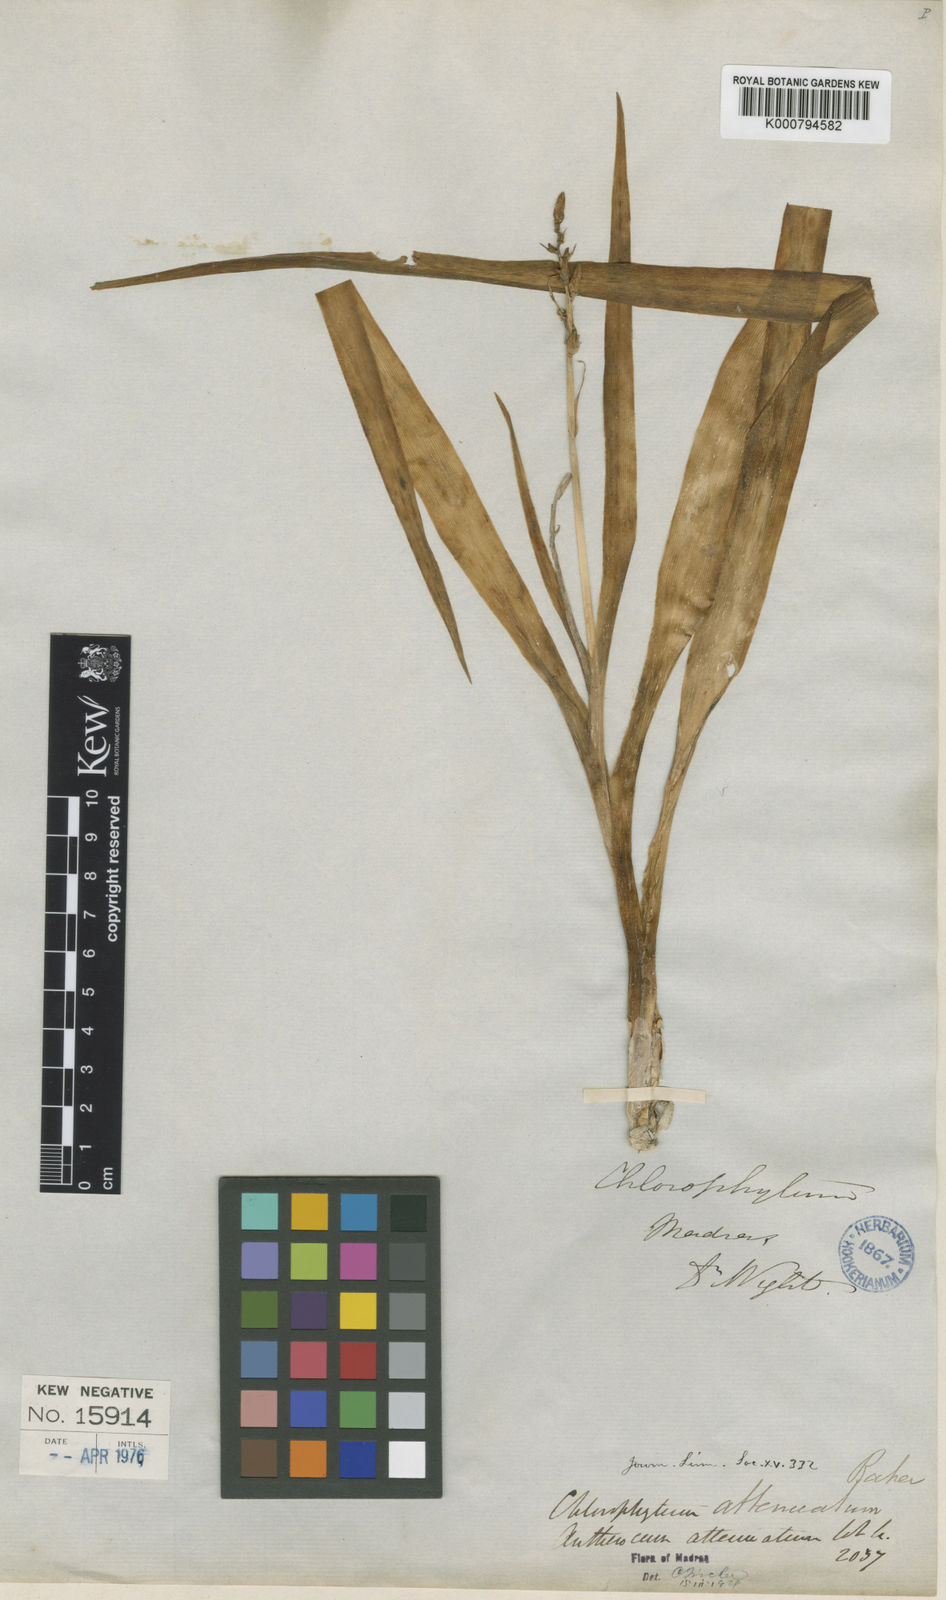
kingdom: Plantae
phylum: Tracheophyta
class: Liliopsida
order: Asparagales
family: Asparagaceae
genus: Chlorophytum
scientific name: Chlorophytum indicum
